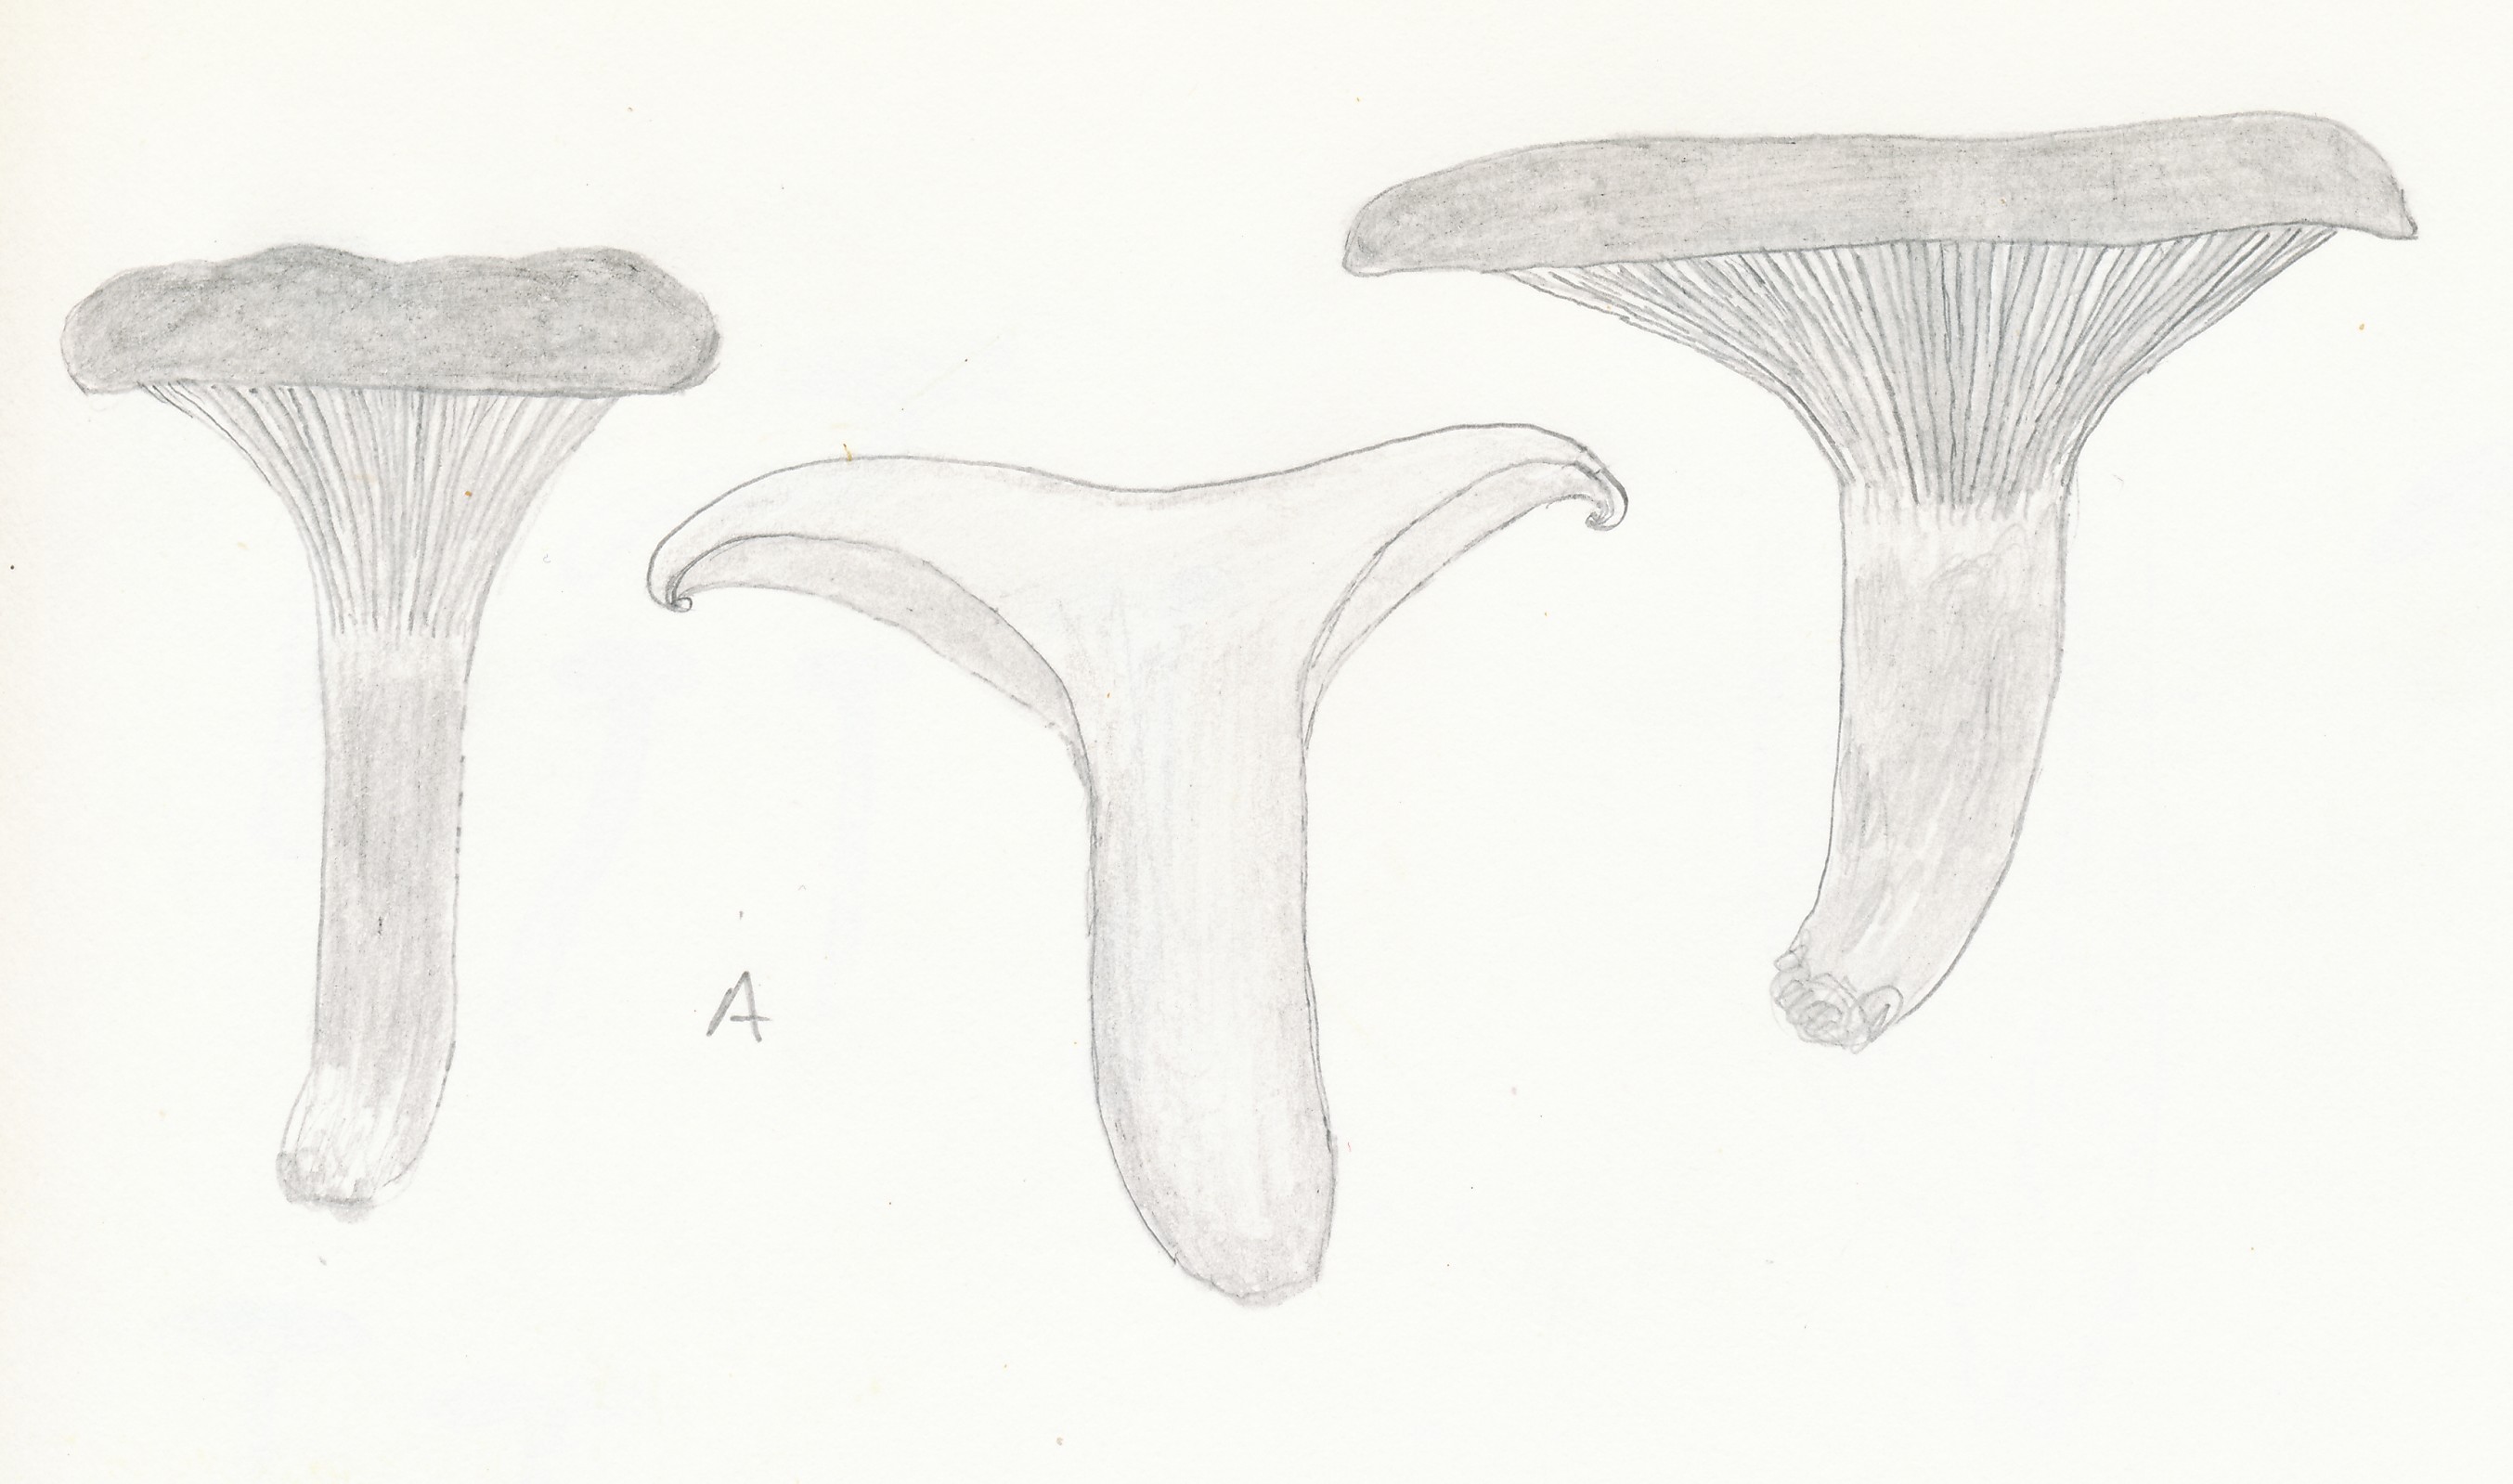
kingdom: Fungi
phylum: Basidiomycota
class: Agaricomycetes
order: Boletales
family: Paxillaceae
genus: Paxillus
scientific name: Paxillus rubicundulus
